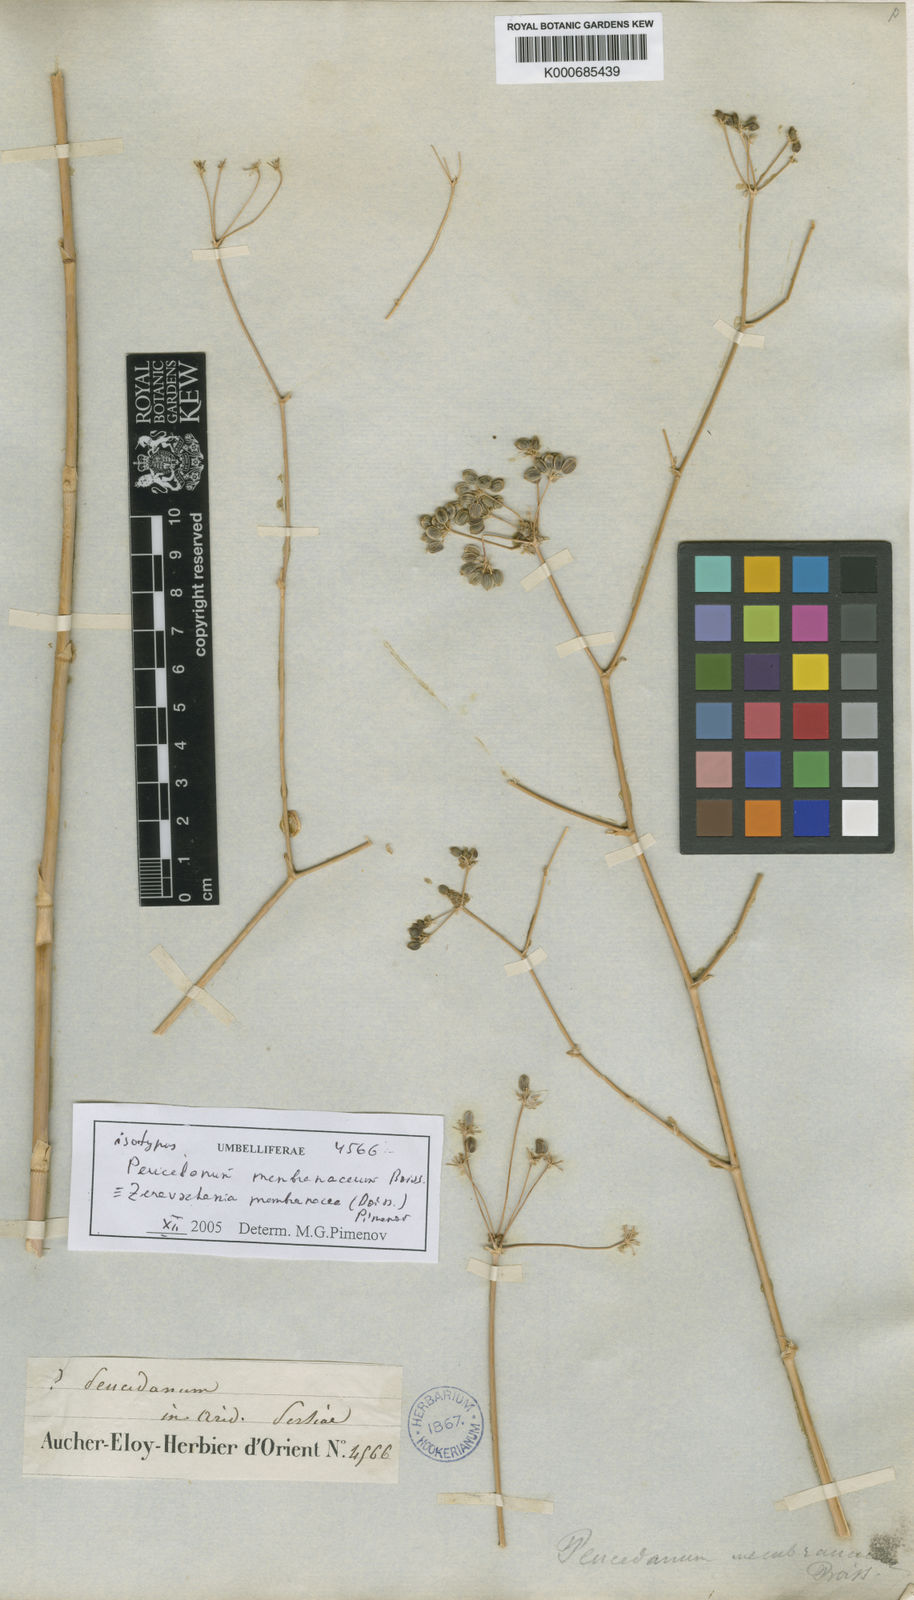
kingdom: Plantae
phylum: Tracheophyta
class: Magnoliopsida
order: Apiales
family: Apiaceae
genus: Zeravschania
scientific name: Zeravschania membranacea
